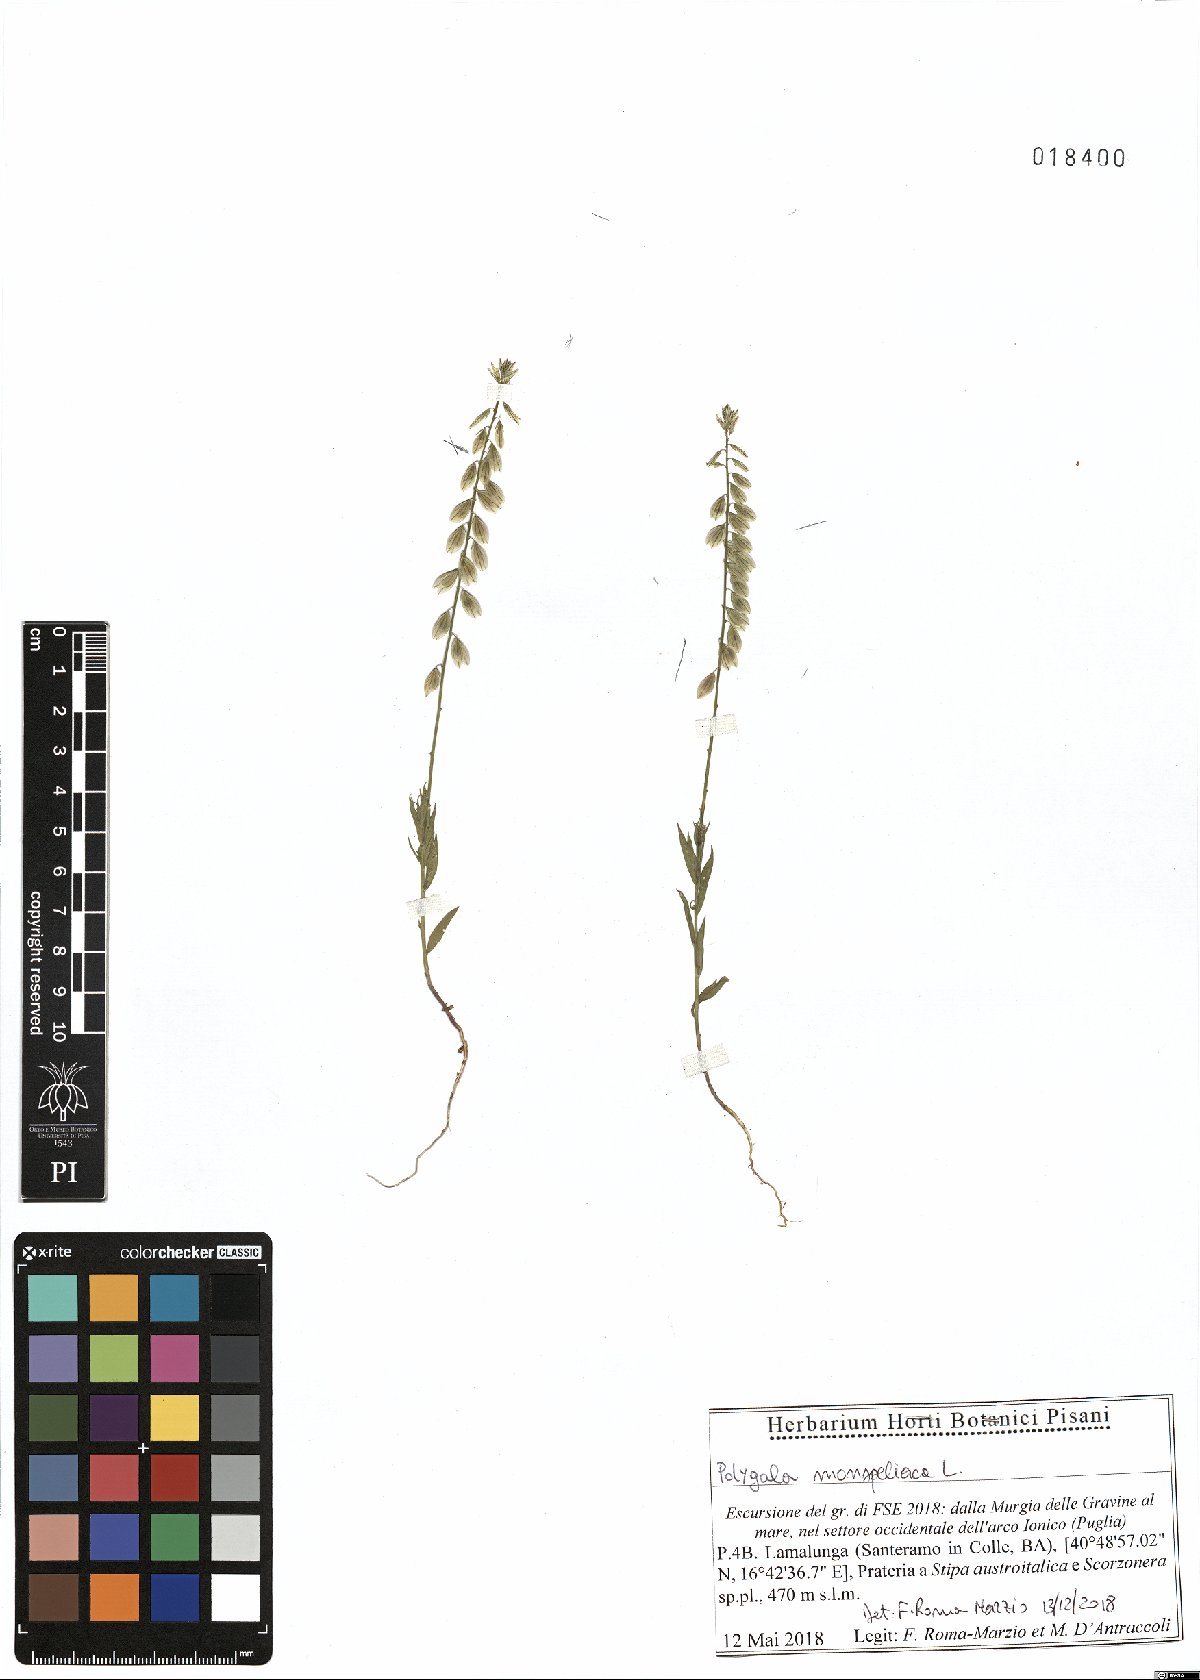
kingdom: Plantae
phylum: Tracheophyta
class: Magnoliopsida
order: Fabales
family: Polygalaceae
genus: Polygala
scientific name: Polygala monspeliaca
